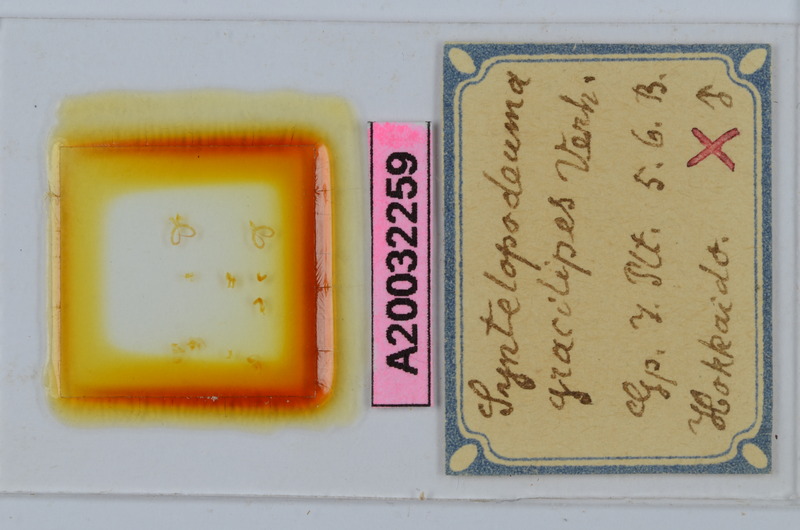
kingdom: Animalia
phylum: Arthropoda
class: Diplopoda
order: Chordeumatida
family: Diplomaragnidae
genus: Diplomaragna
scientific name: Diplomaragna gracilipes
